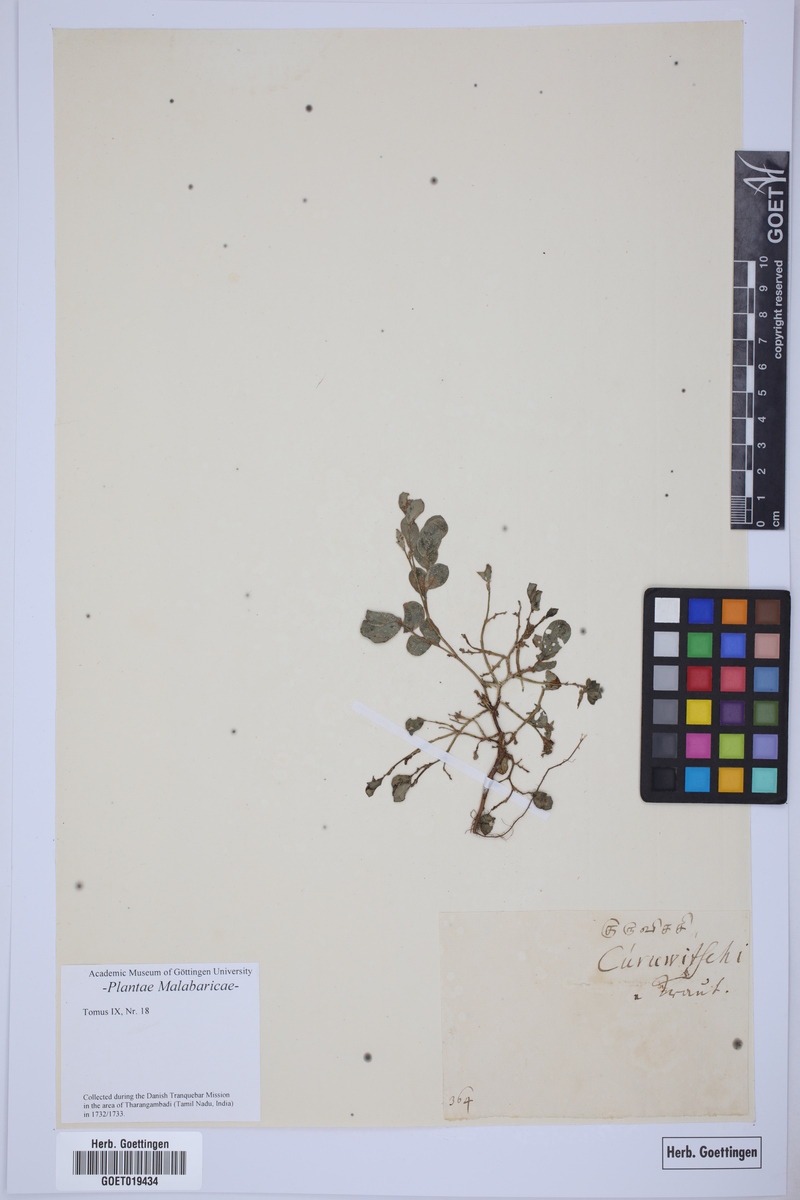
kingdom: Plantae
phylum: Tracheophyta
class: Magnoliopsida
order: Boraginales
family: Ehretiaceae
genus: Ehretia
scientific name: Ehretia microphylla
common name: Fukien-tea
